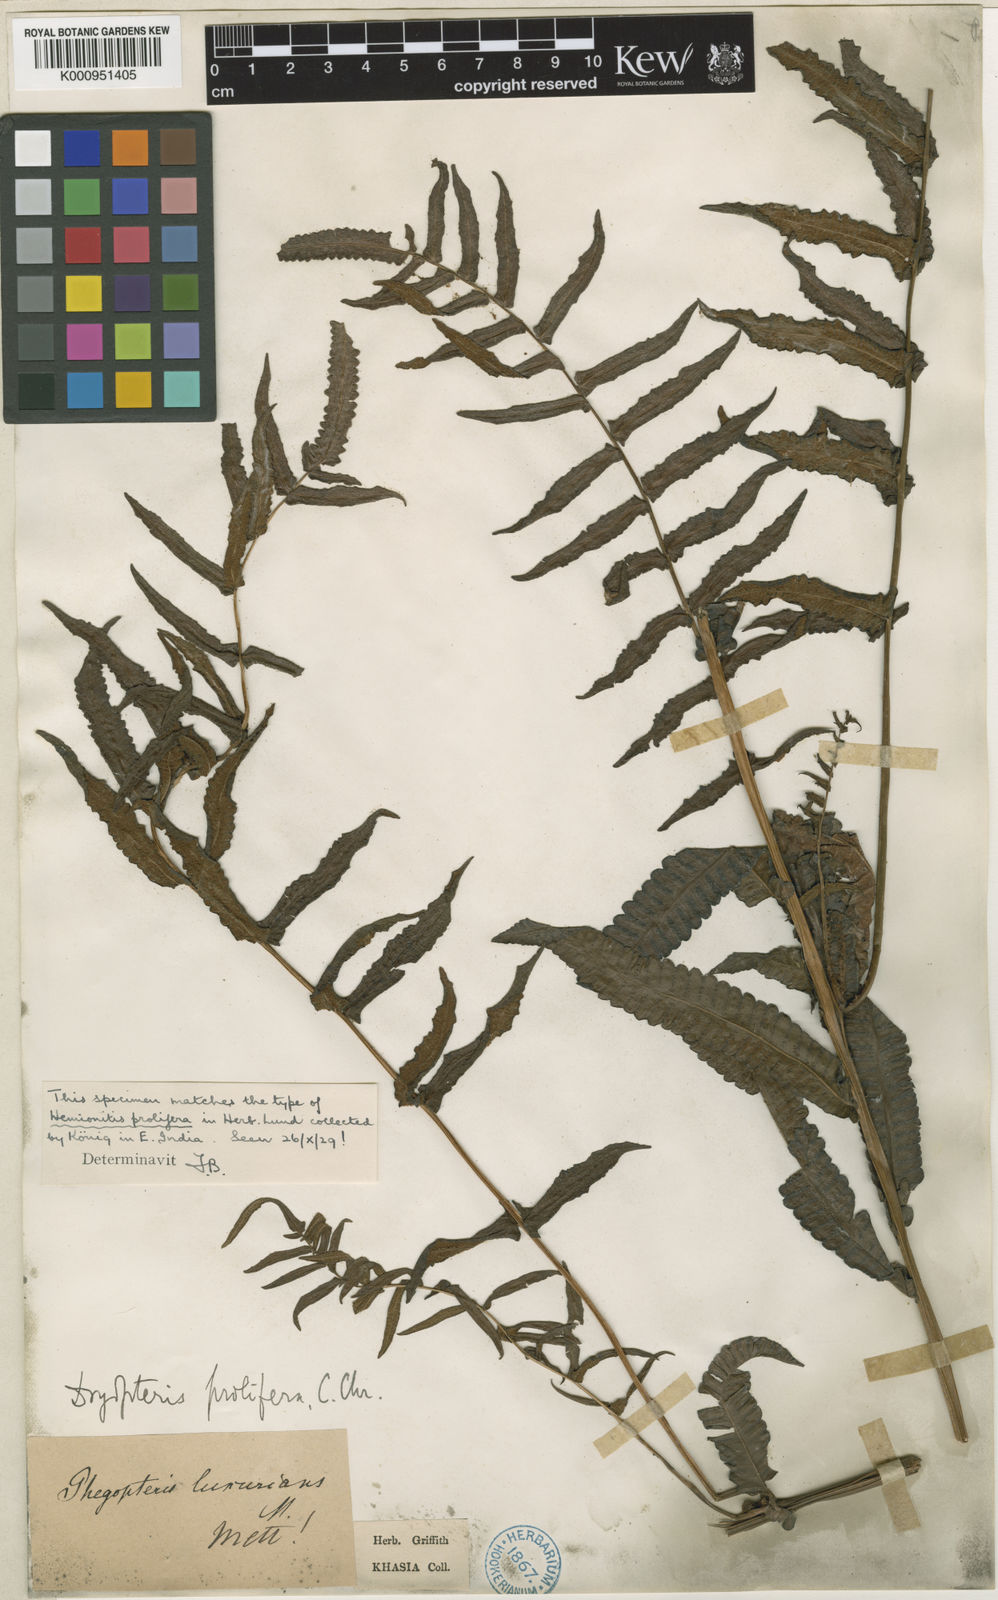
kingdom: Plantae
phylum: Tracheophyta
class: Polypodiopsida
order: Polypodiales
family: Thelypteridaceae
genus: Ampelopteris
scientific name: Ampelopteris prolifera
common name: Riverine scrambler
